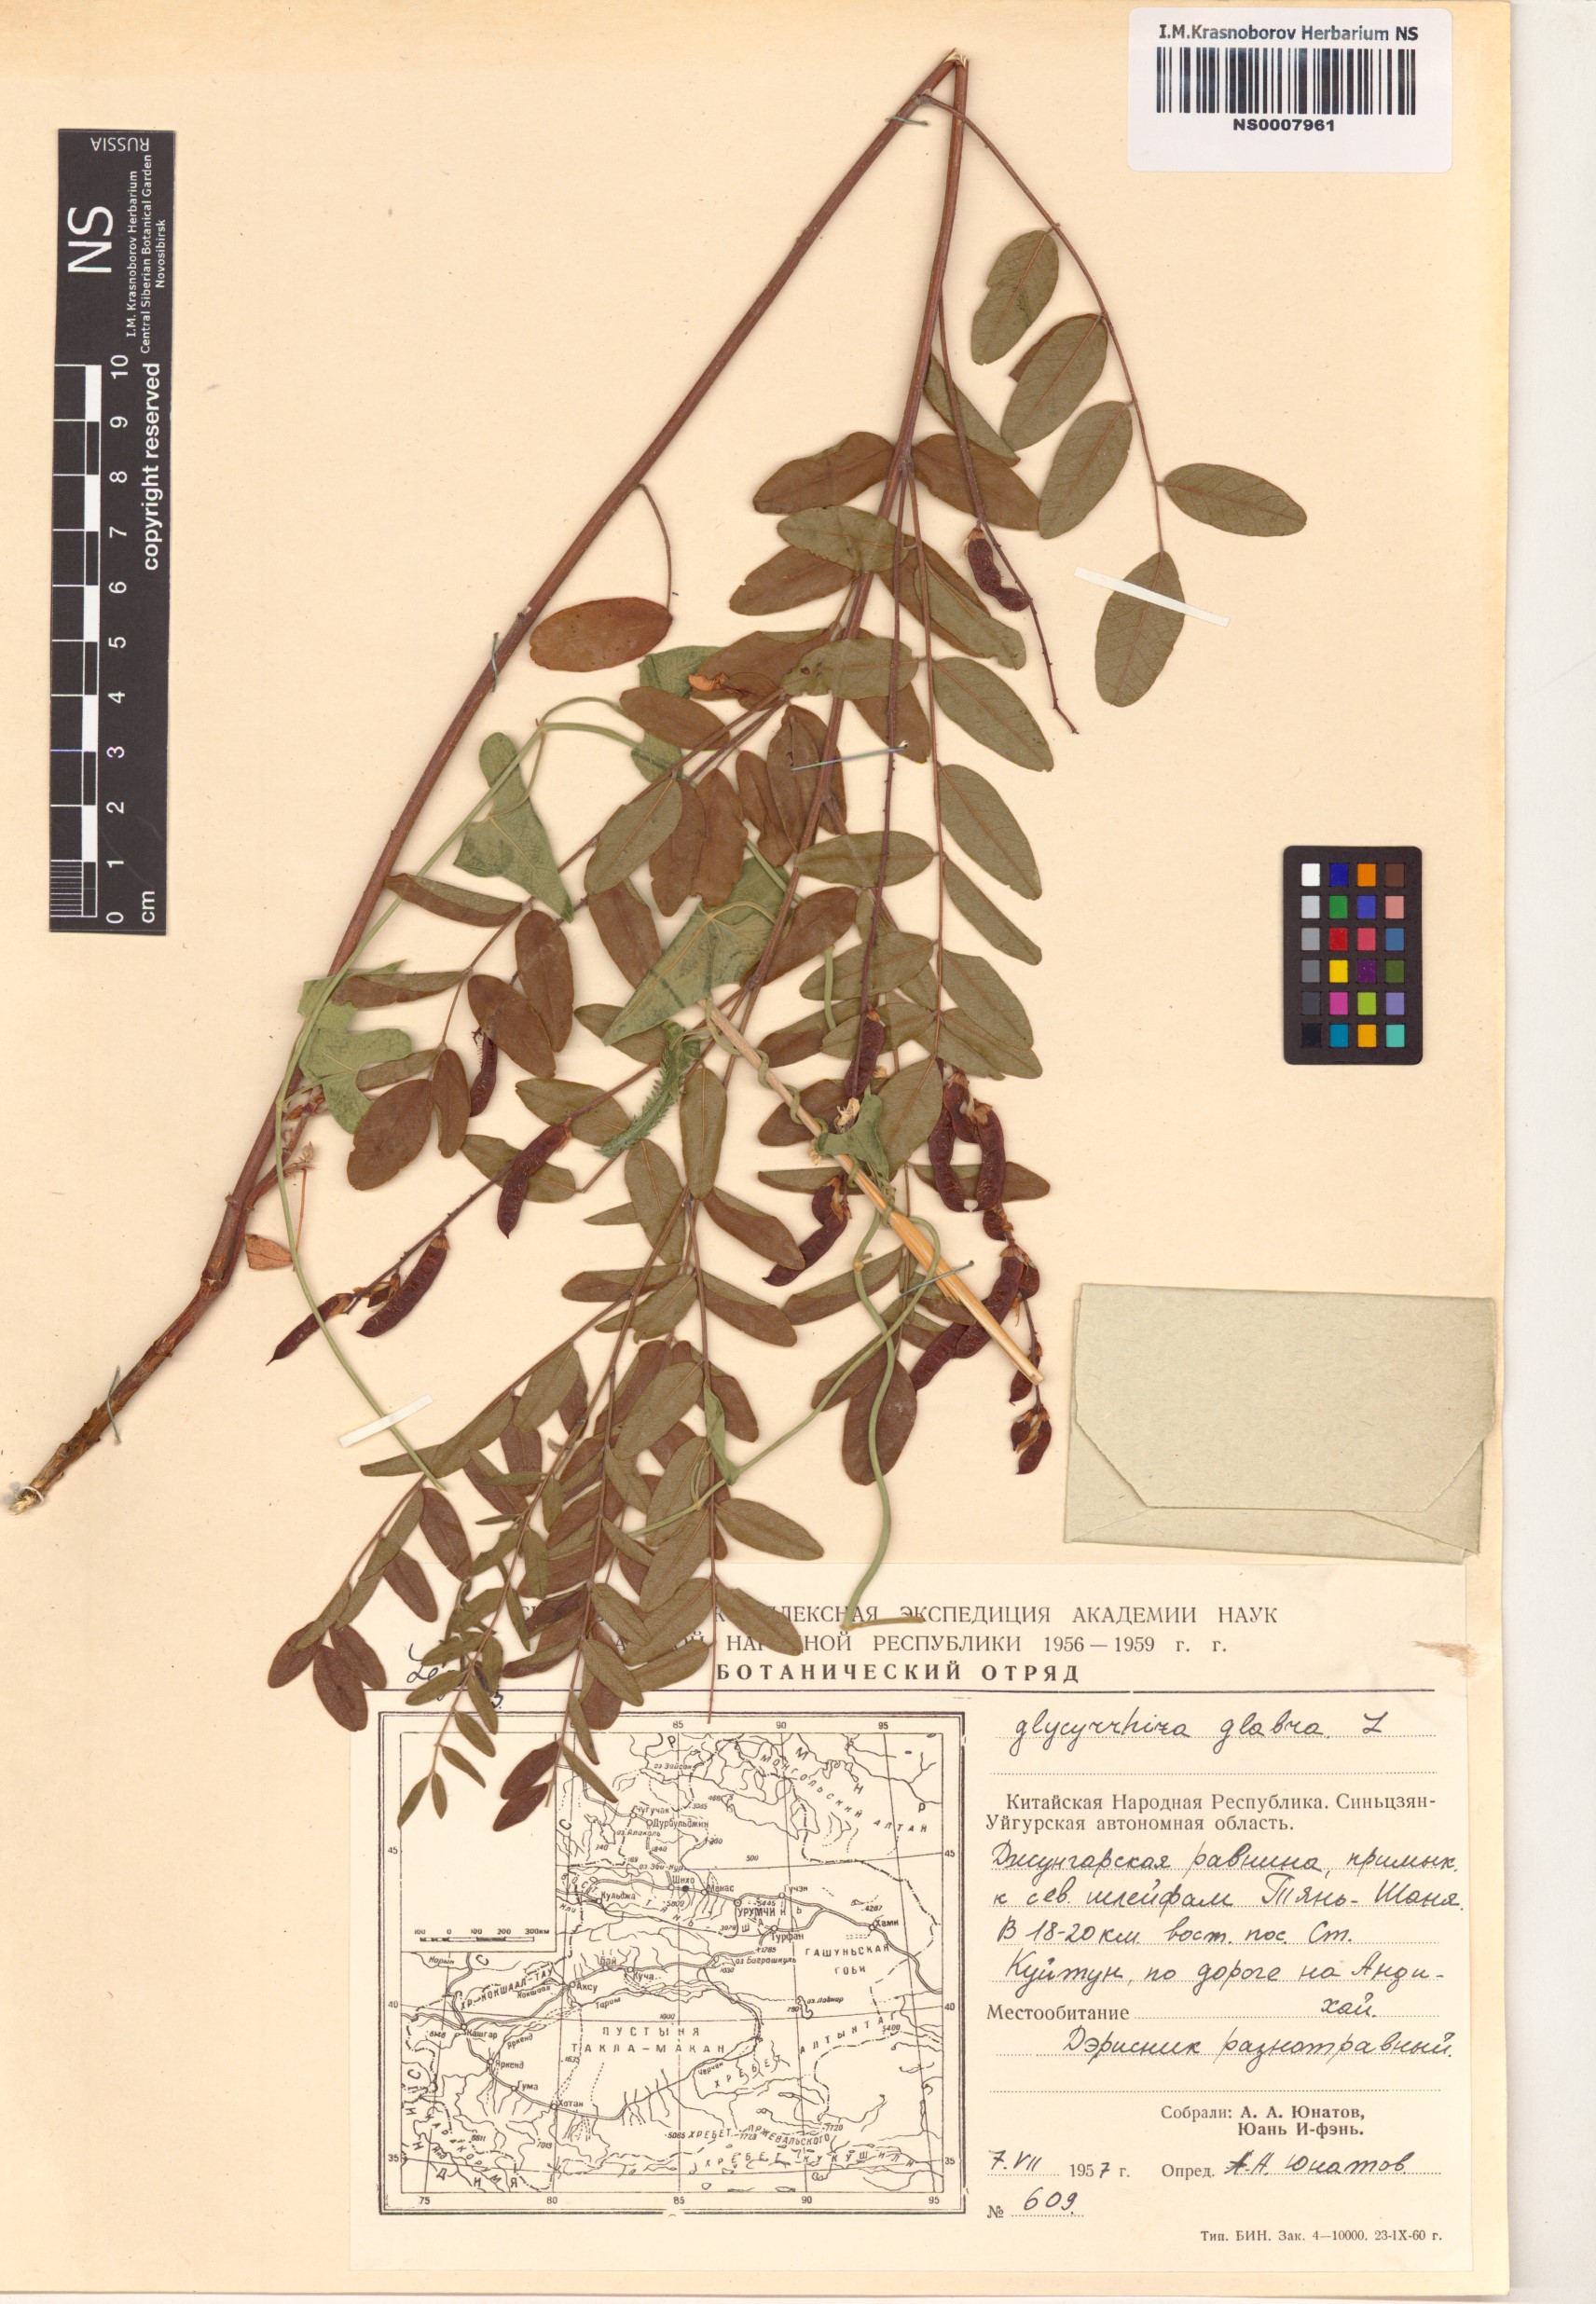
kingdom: Plantae
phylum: Tracheophyta
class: Magnoliopsida
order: Fabales
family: Fabaceae
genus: Glycyrrhiza
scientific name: Glycyrrhiza glabra
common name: Liquorice
